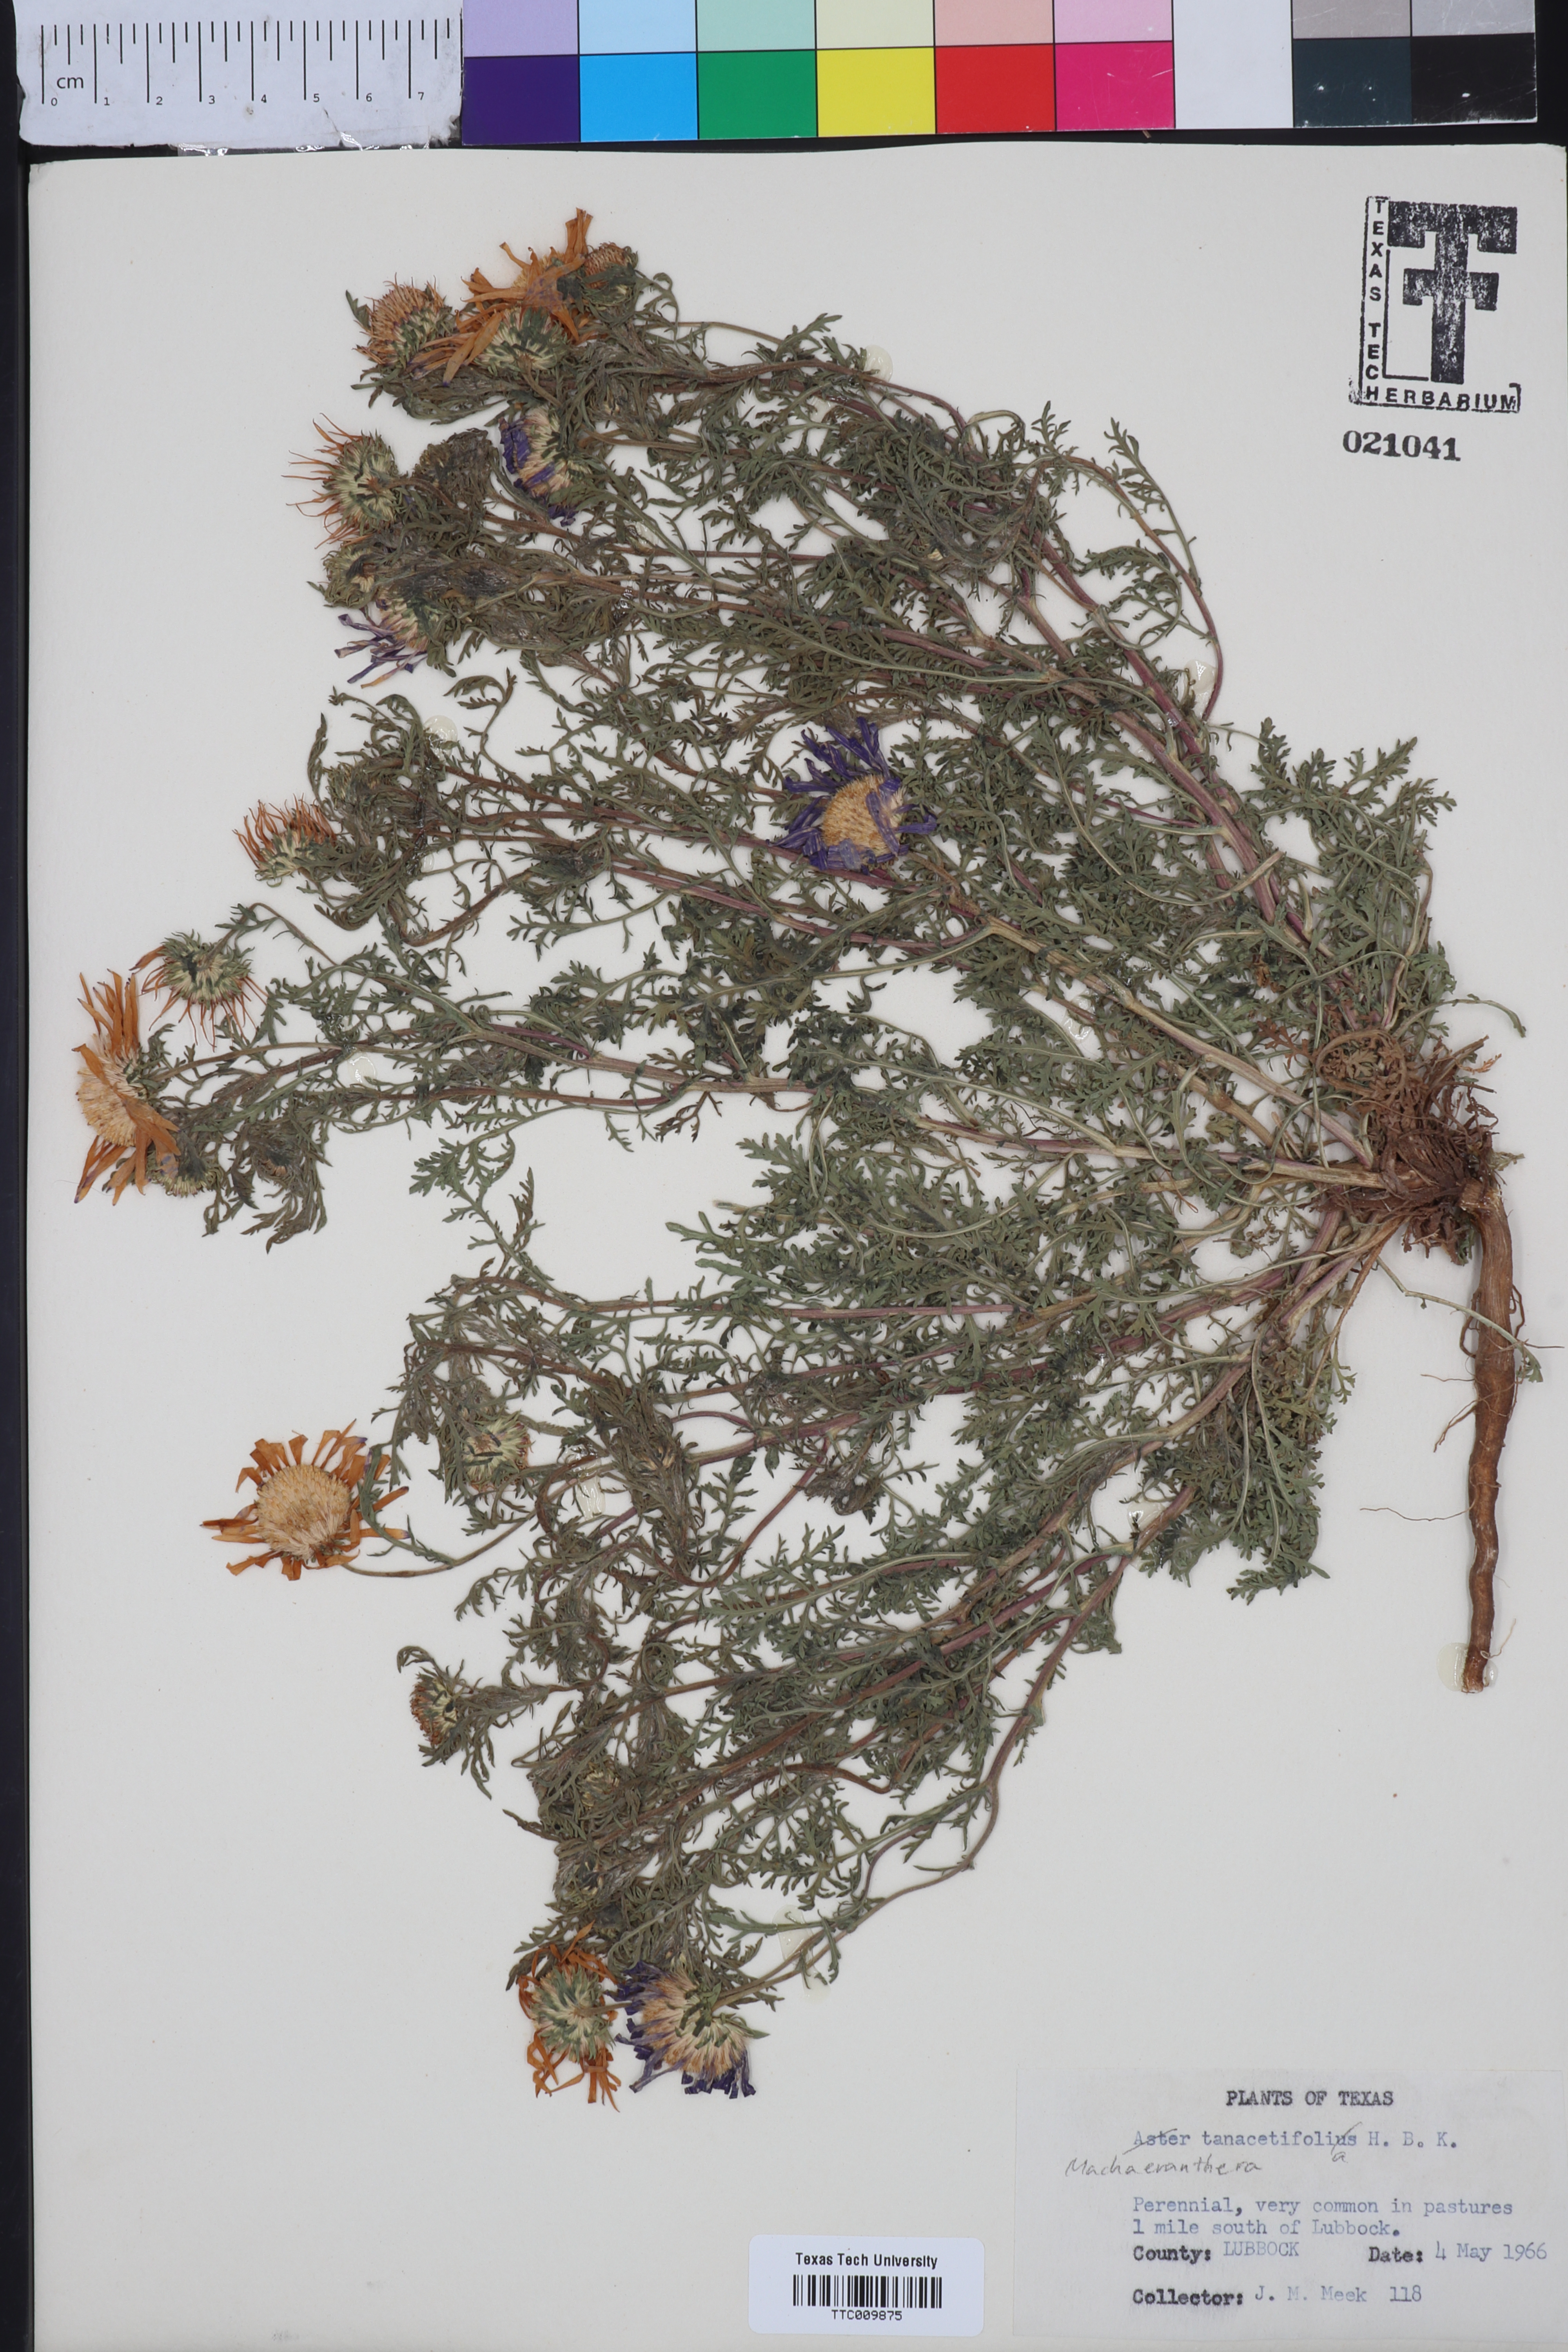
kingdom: Plantae
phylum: Tracheophyta
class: Magnoliopsida
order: Asterales
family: Asteraceae
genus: Machaeranthera
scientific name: Machaeranthera tanacetifolia
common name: Tansy-aster
